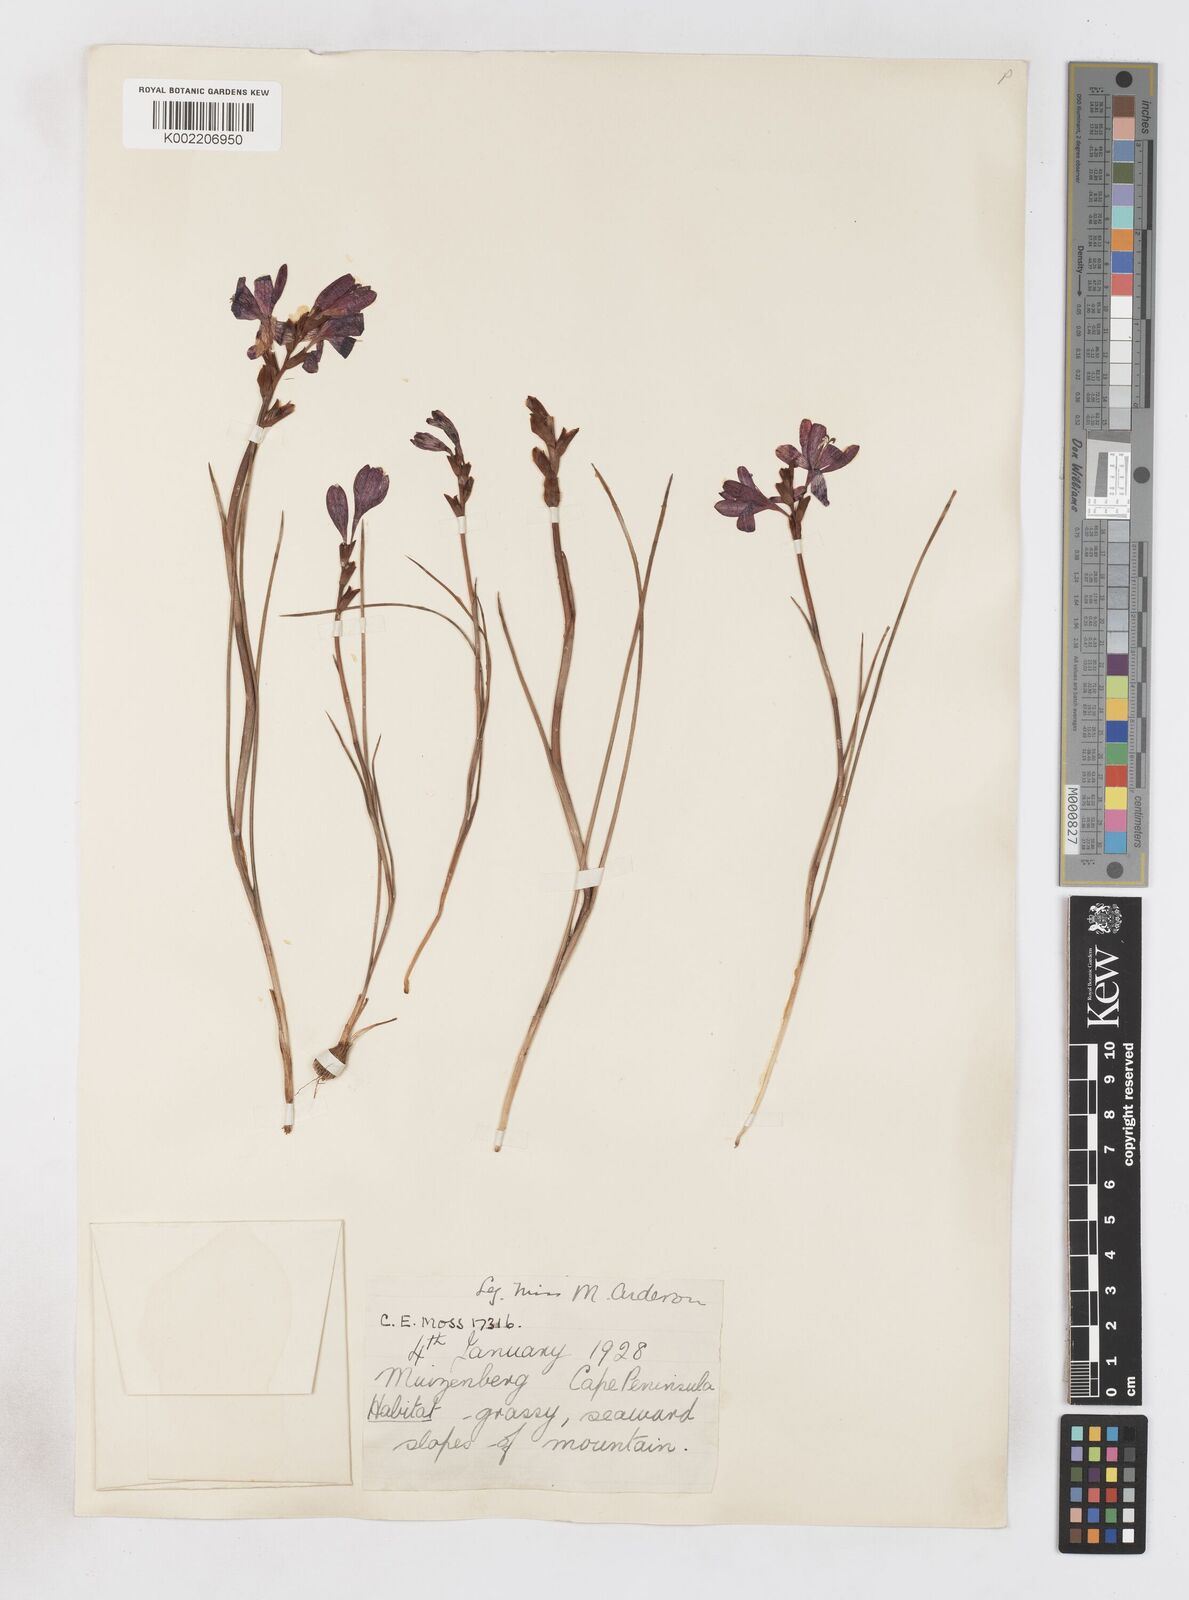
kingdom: Plantae
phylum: Tracheophyta
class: Liliopsida
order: Asparagales
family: Iridaceae
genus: Thereianthus
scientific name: Thereianthus spicatus
